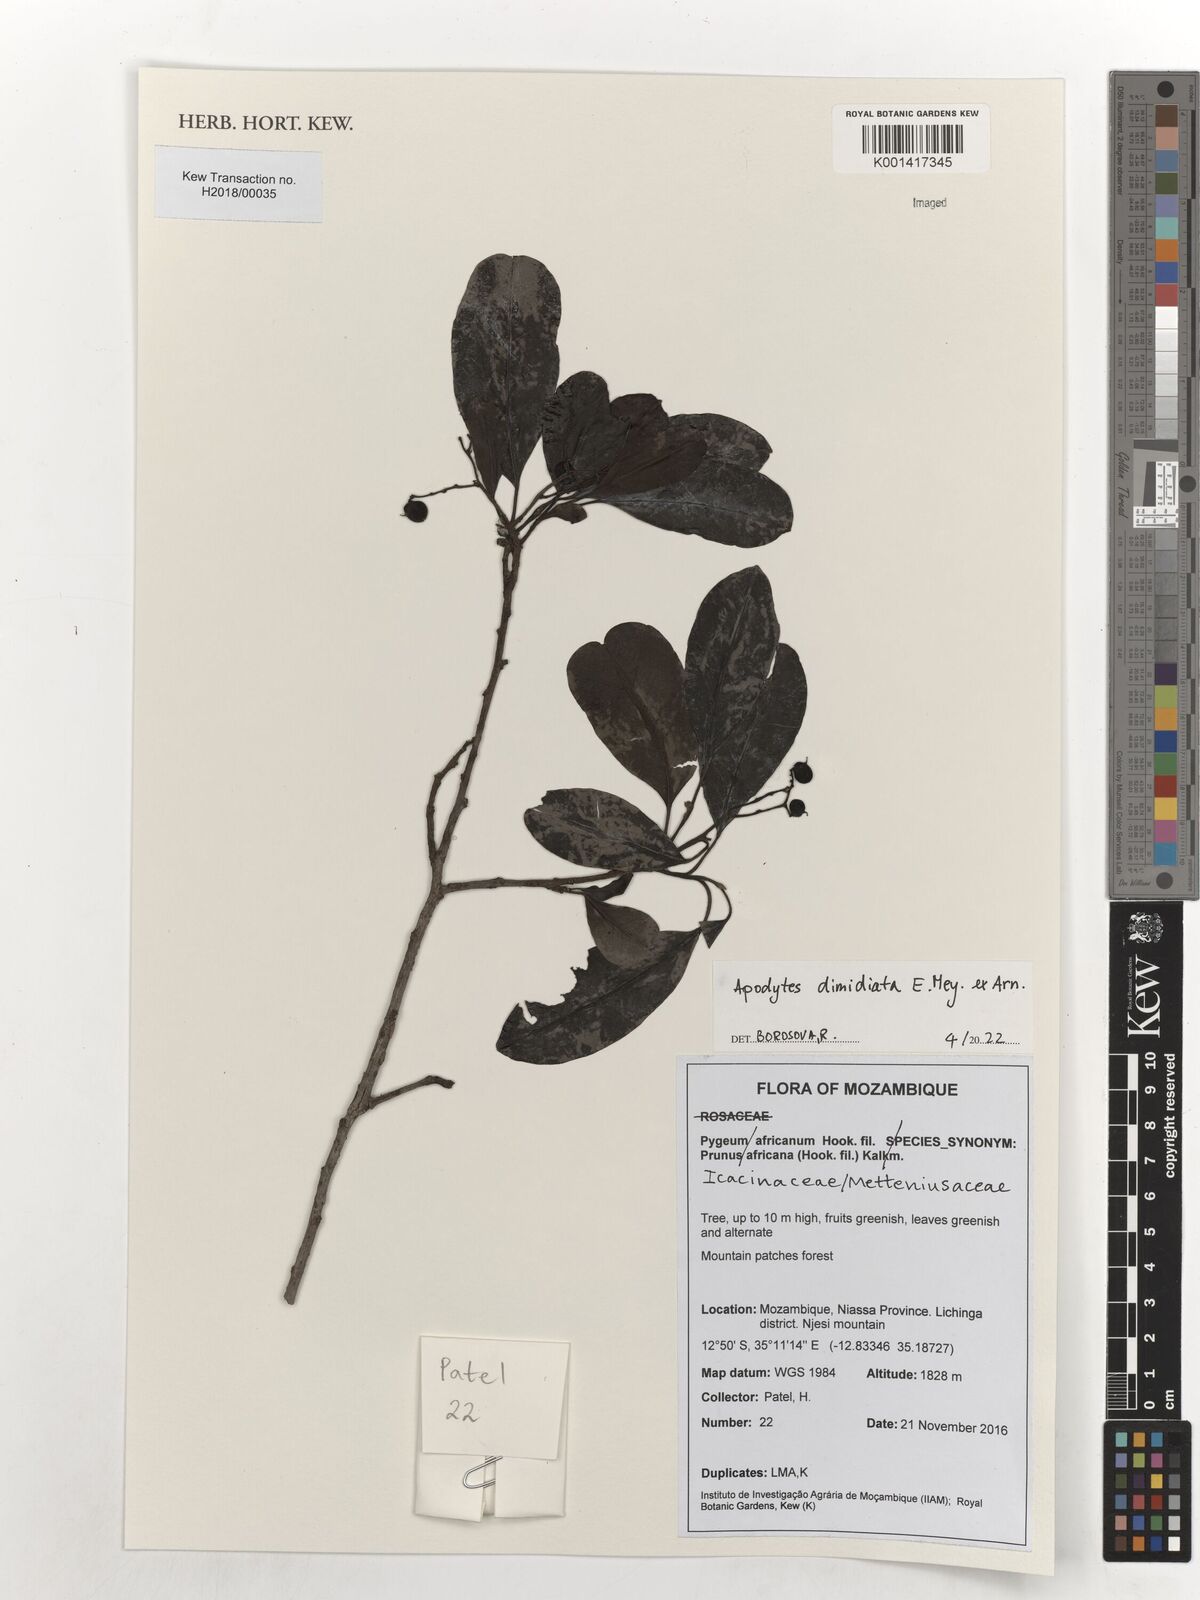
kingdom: Plantae
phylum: Tracheophyta
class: Magnoliopsida
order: Metteniusales
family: Metteniusaceae
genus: Apodytes
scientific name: Apodytes dimidiata
